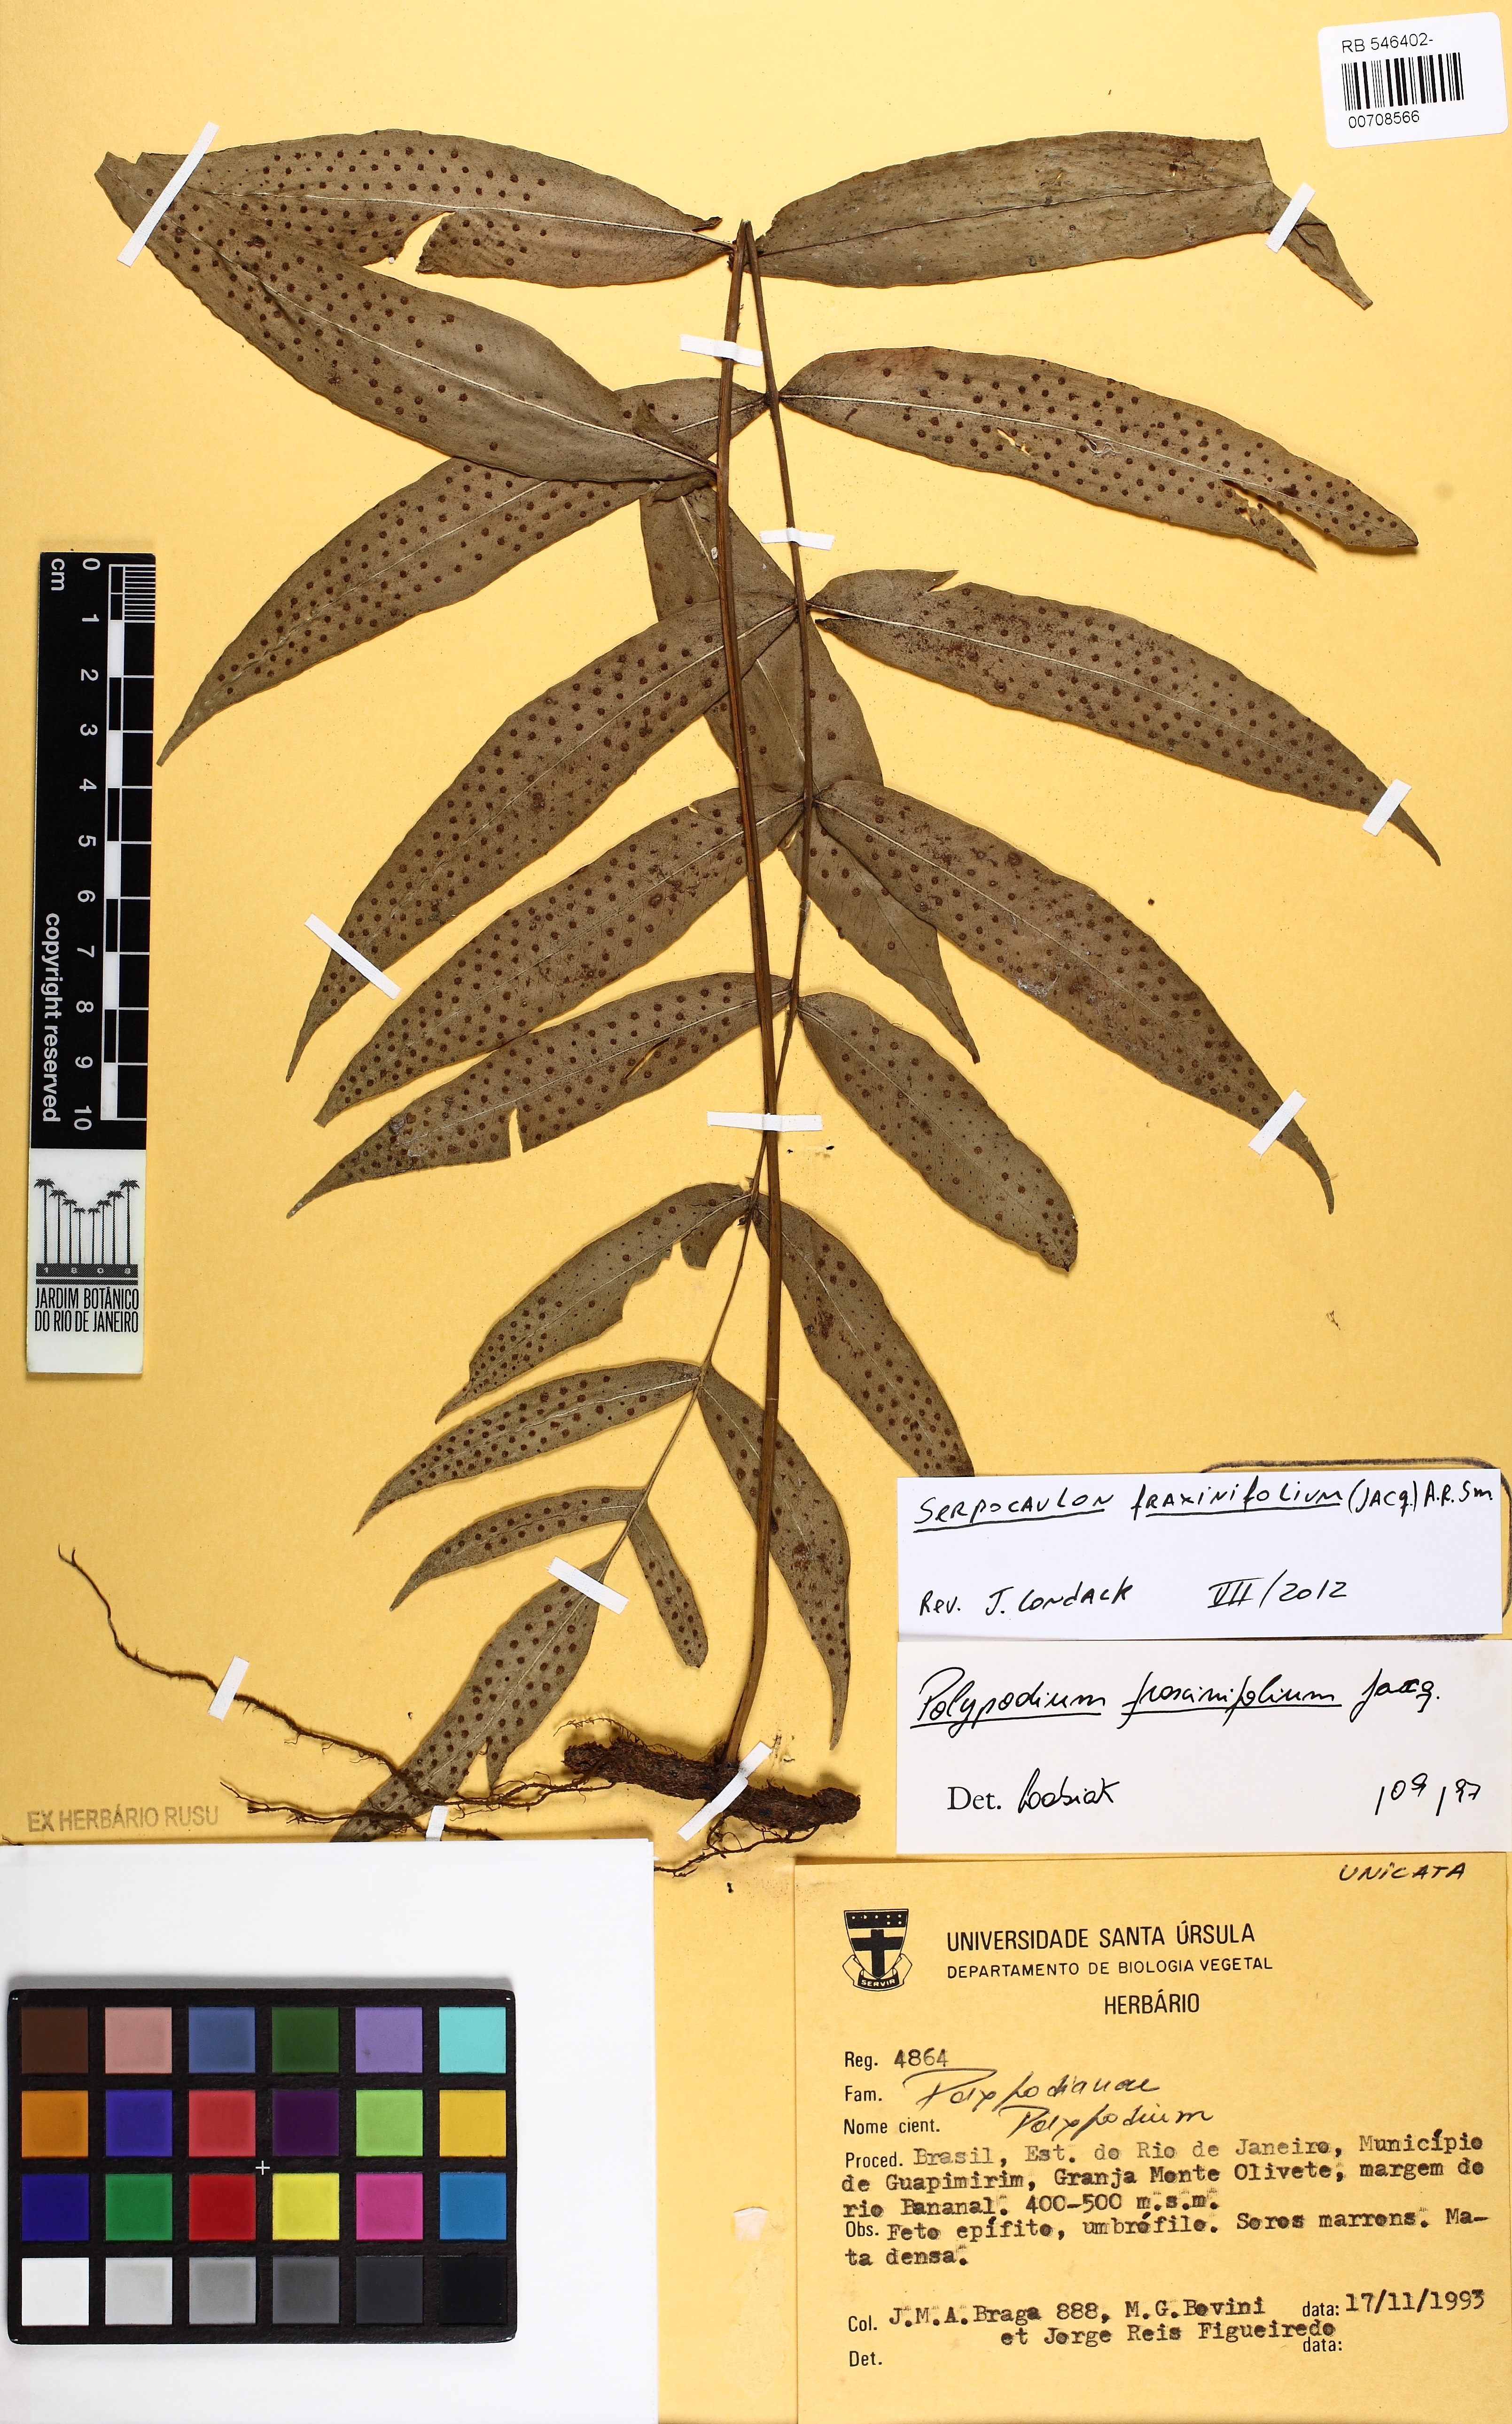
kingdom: Plantae
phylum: Tracheophyta
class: Polypodiopsida
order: Polypodiales
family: Polypodiaceae
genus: Serpocaulon
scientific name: Serpocaulon fraxinifolium
